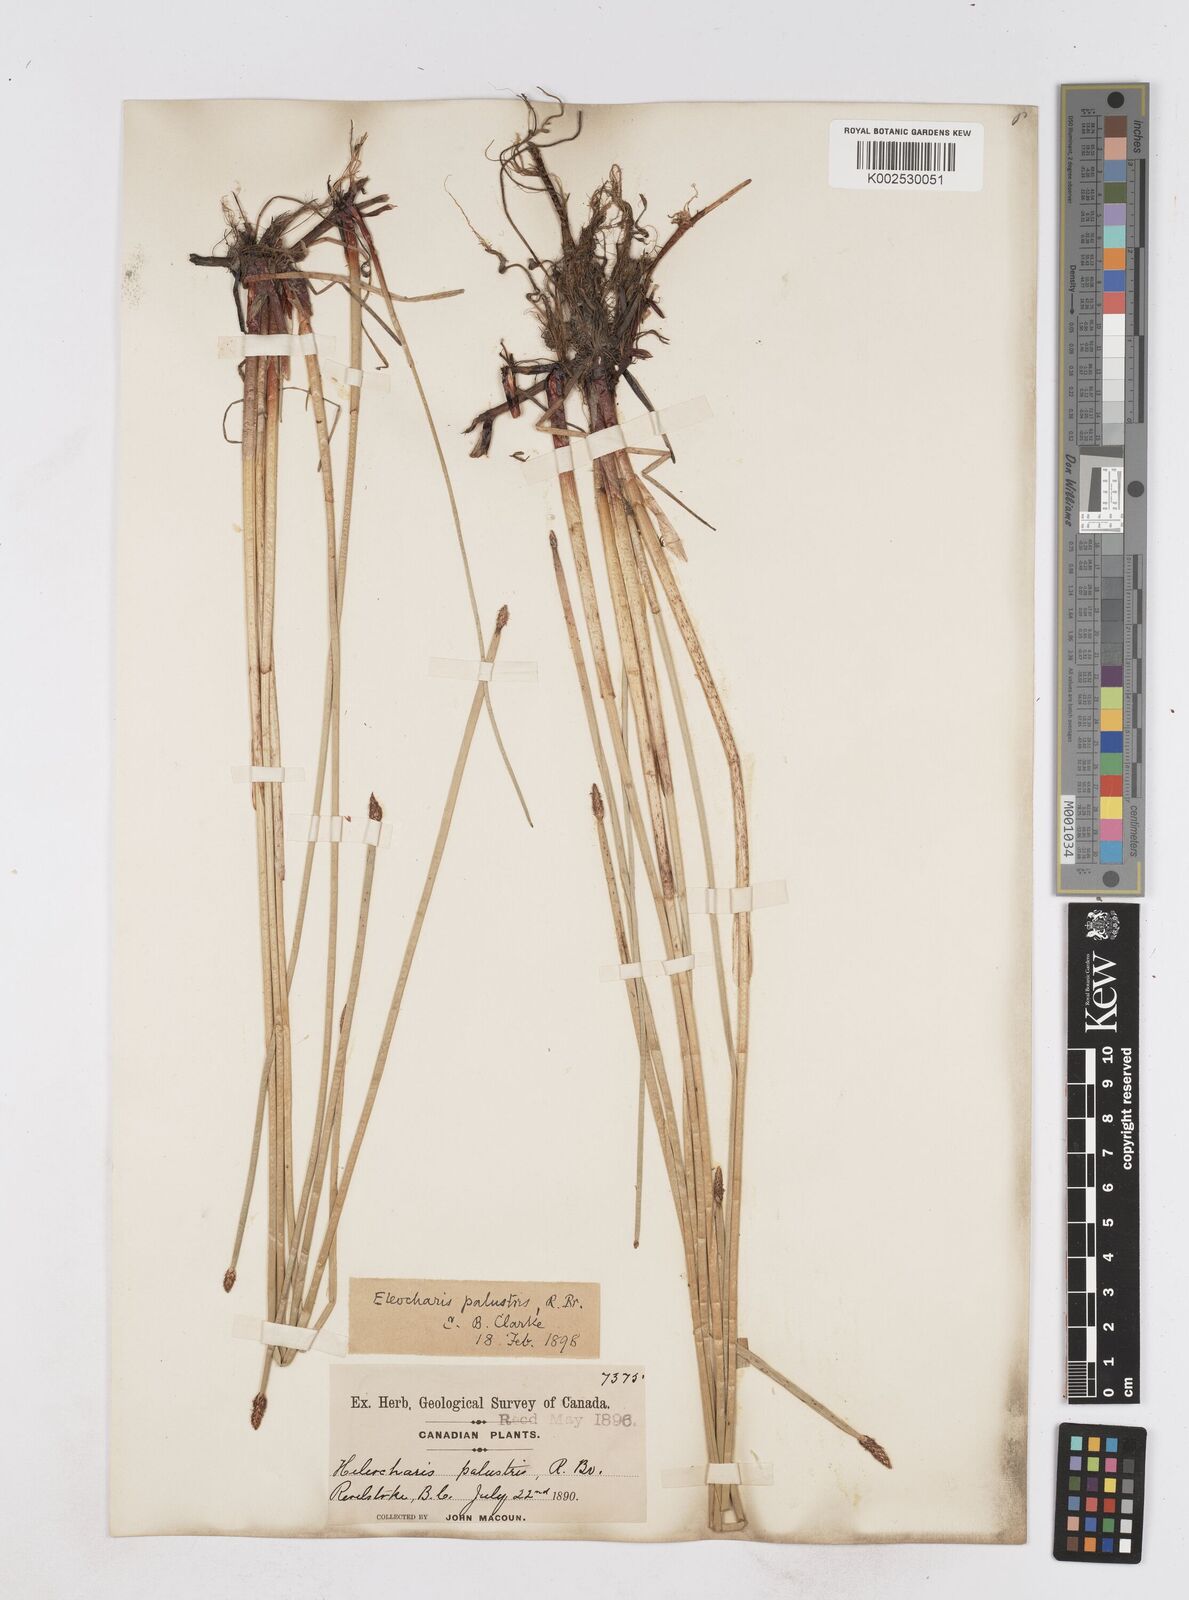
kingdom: Plantae
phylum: Tracheophyta
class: Liliopsida
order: Poales
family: Cyperaceae
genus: Eleocharis
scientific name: Eleocharis palustris
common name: Common spike-rush
